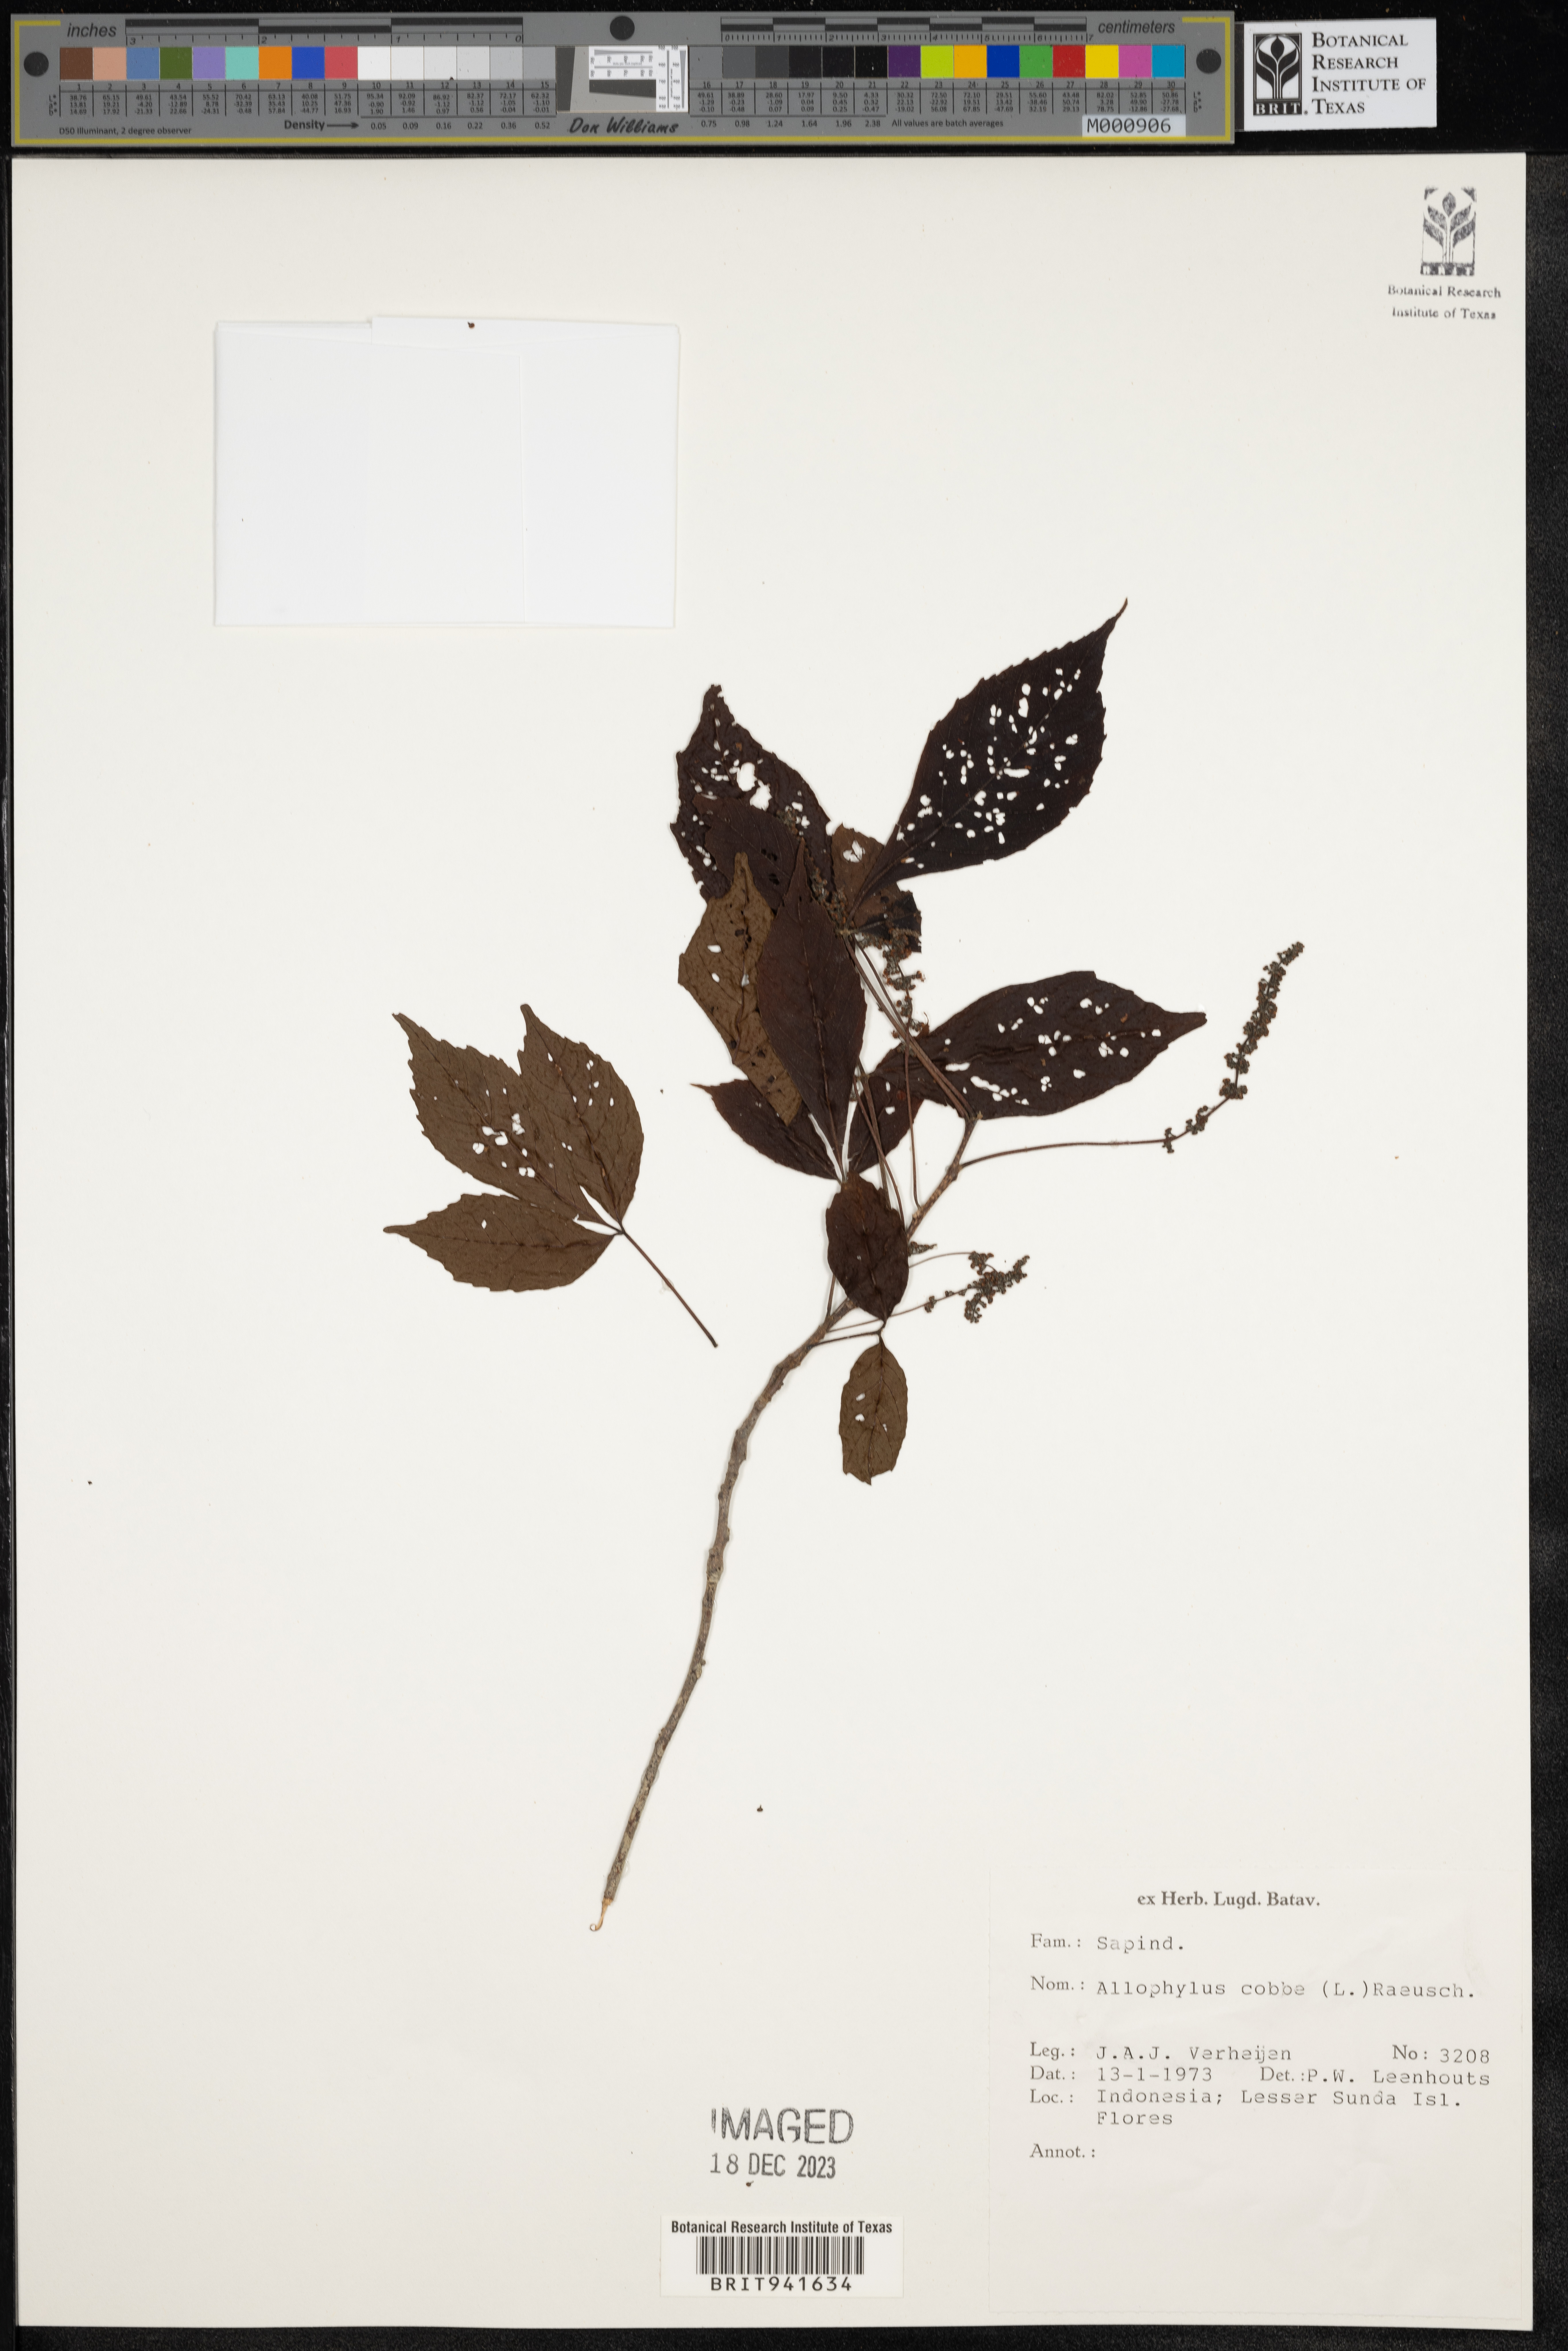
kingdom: Plantae
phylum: Tracheophyta
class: Magnoliopsida
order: Ericales
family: Polemoniaceae
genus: Allophyllum
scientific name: Allophyllum
